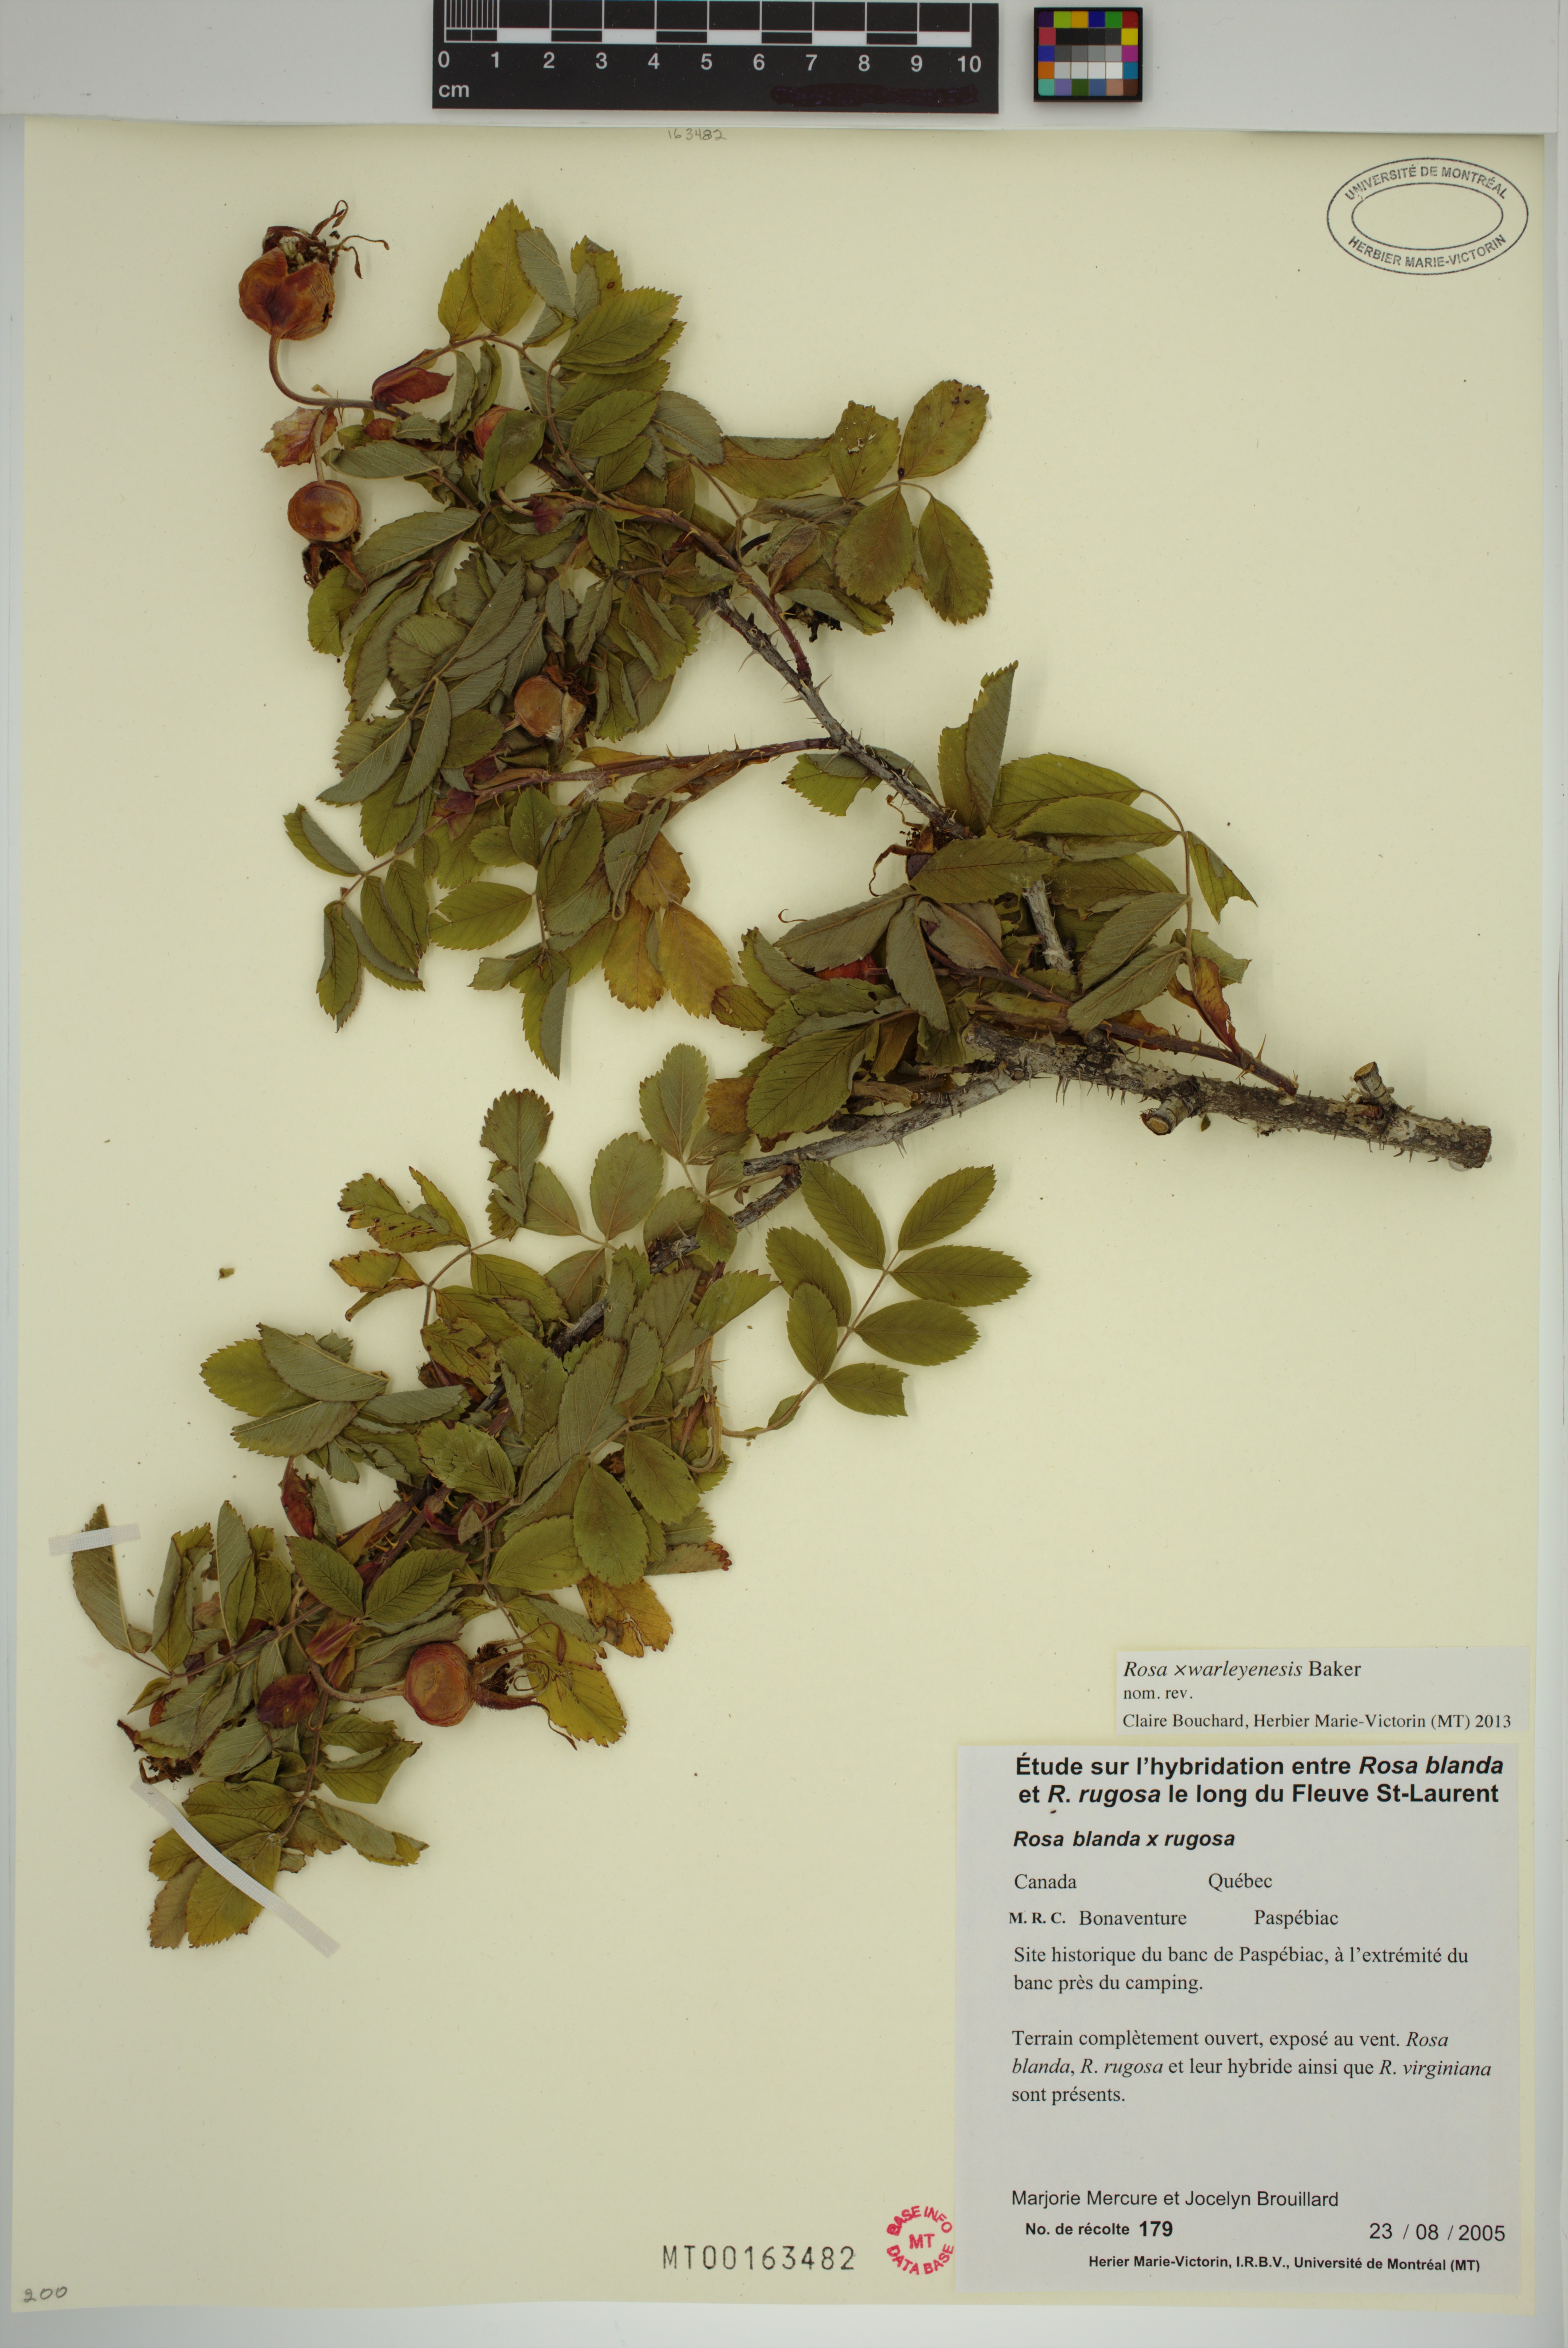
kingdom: Plantae
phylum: Tracheophyta
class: Magnoliopsida
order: Rosales
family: Rosaceae
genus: Rosa
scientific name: Rosa warleyensis
